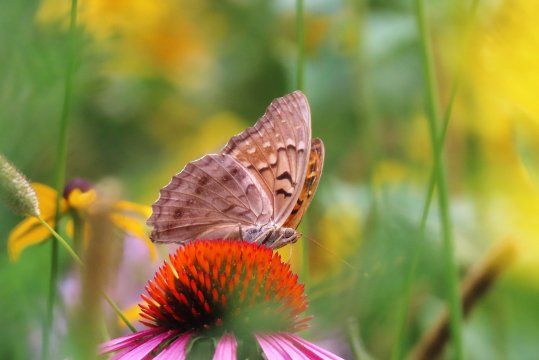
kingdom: Animalia
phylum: Arthropoda
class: Insecta
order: Lepidoptera
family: Nymphalidae
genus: Asterocampa
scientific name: Asterocampa clyton
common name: Tawny Emperor
